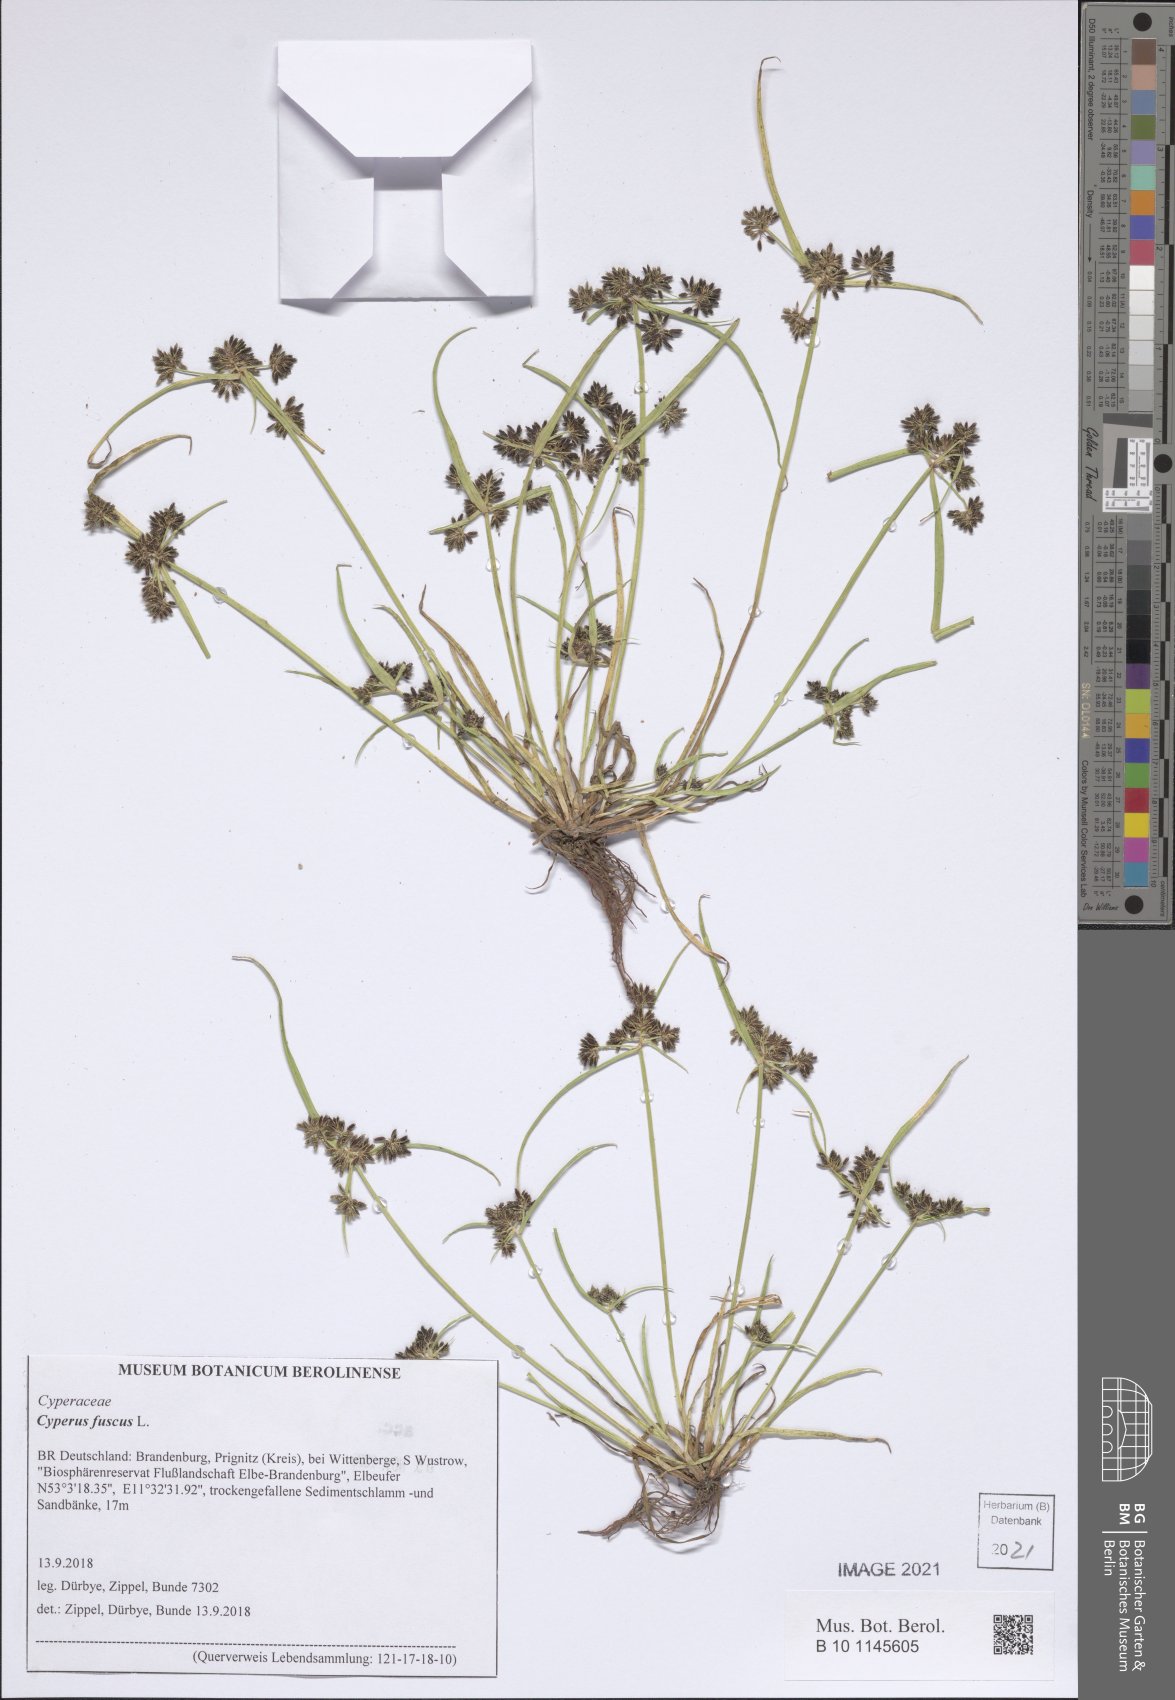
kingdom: Plantae
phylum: Tracheophyta
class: Liliopsida
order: Poales
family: Cyperaceae
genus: Cyperus
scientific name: Cyperus fuscus
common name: Brown galingale
